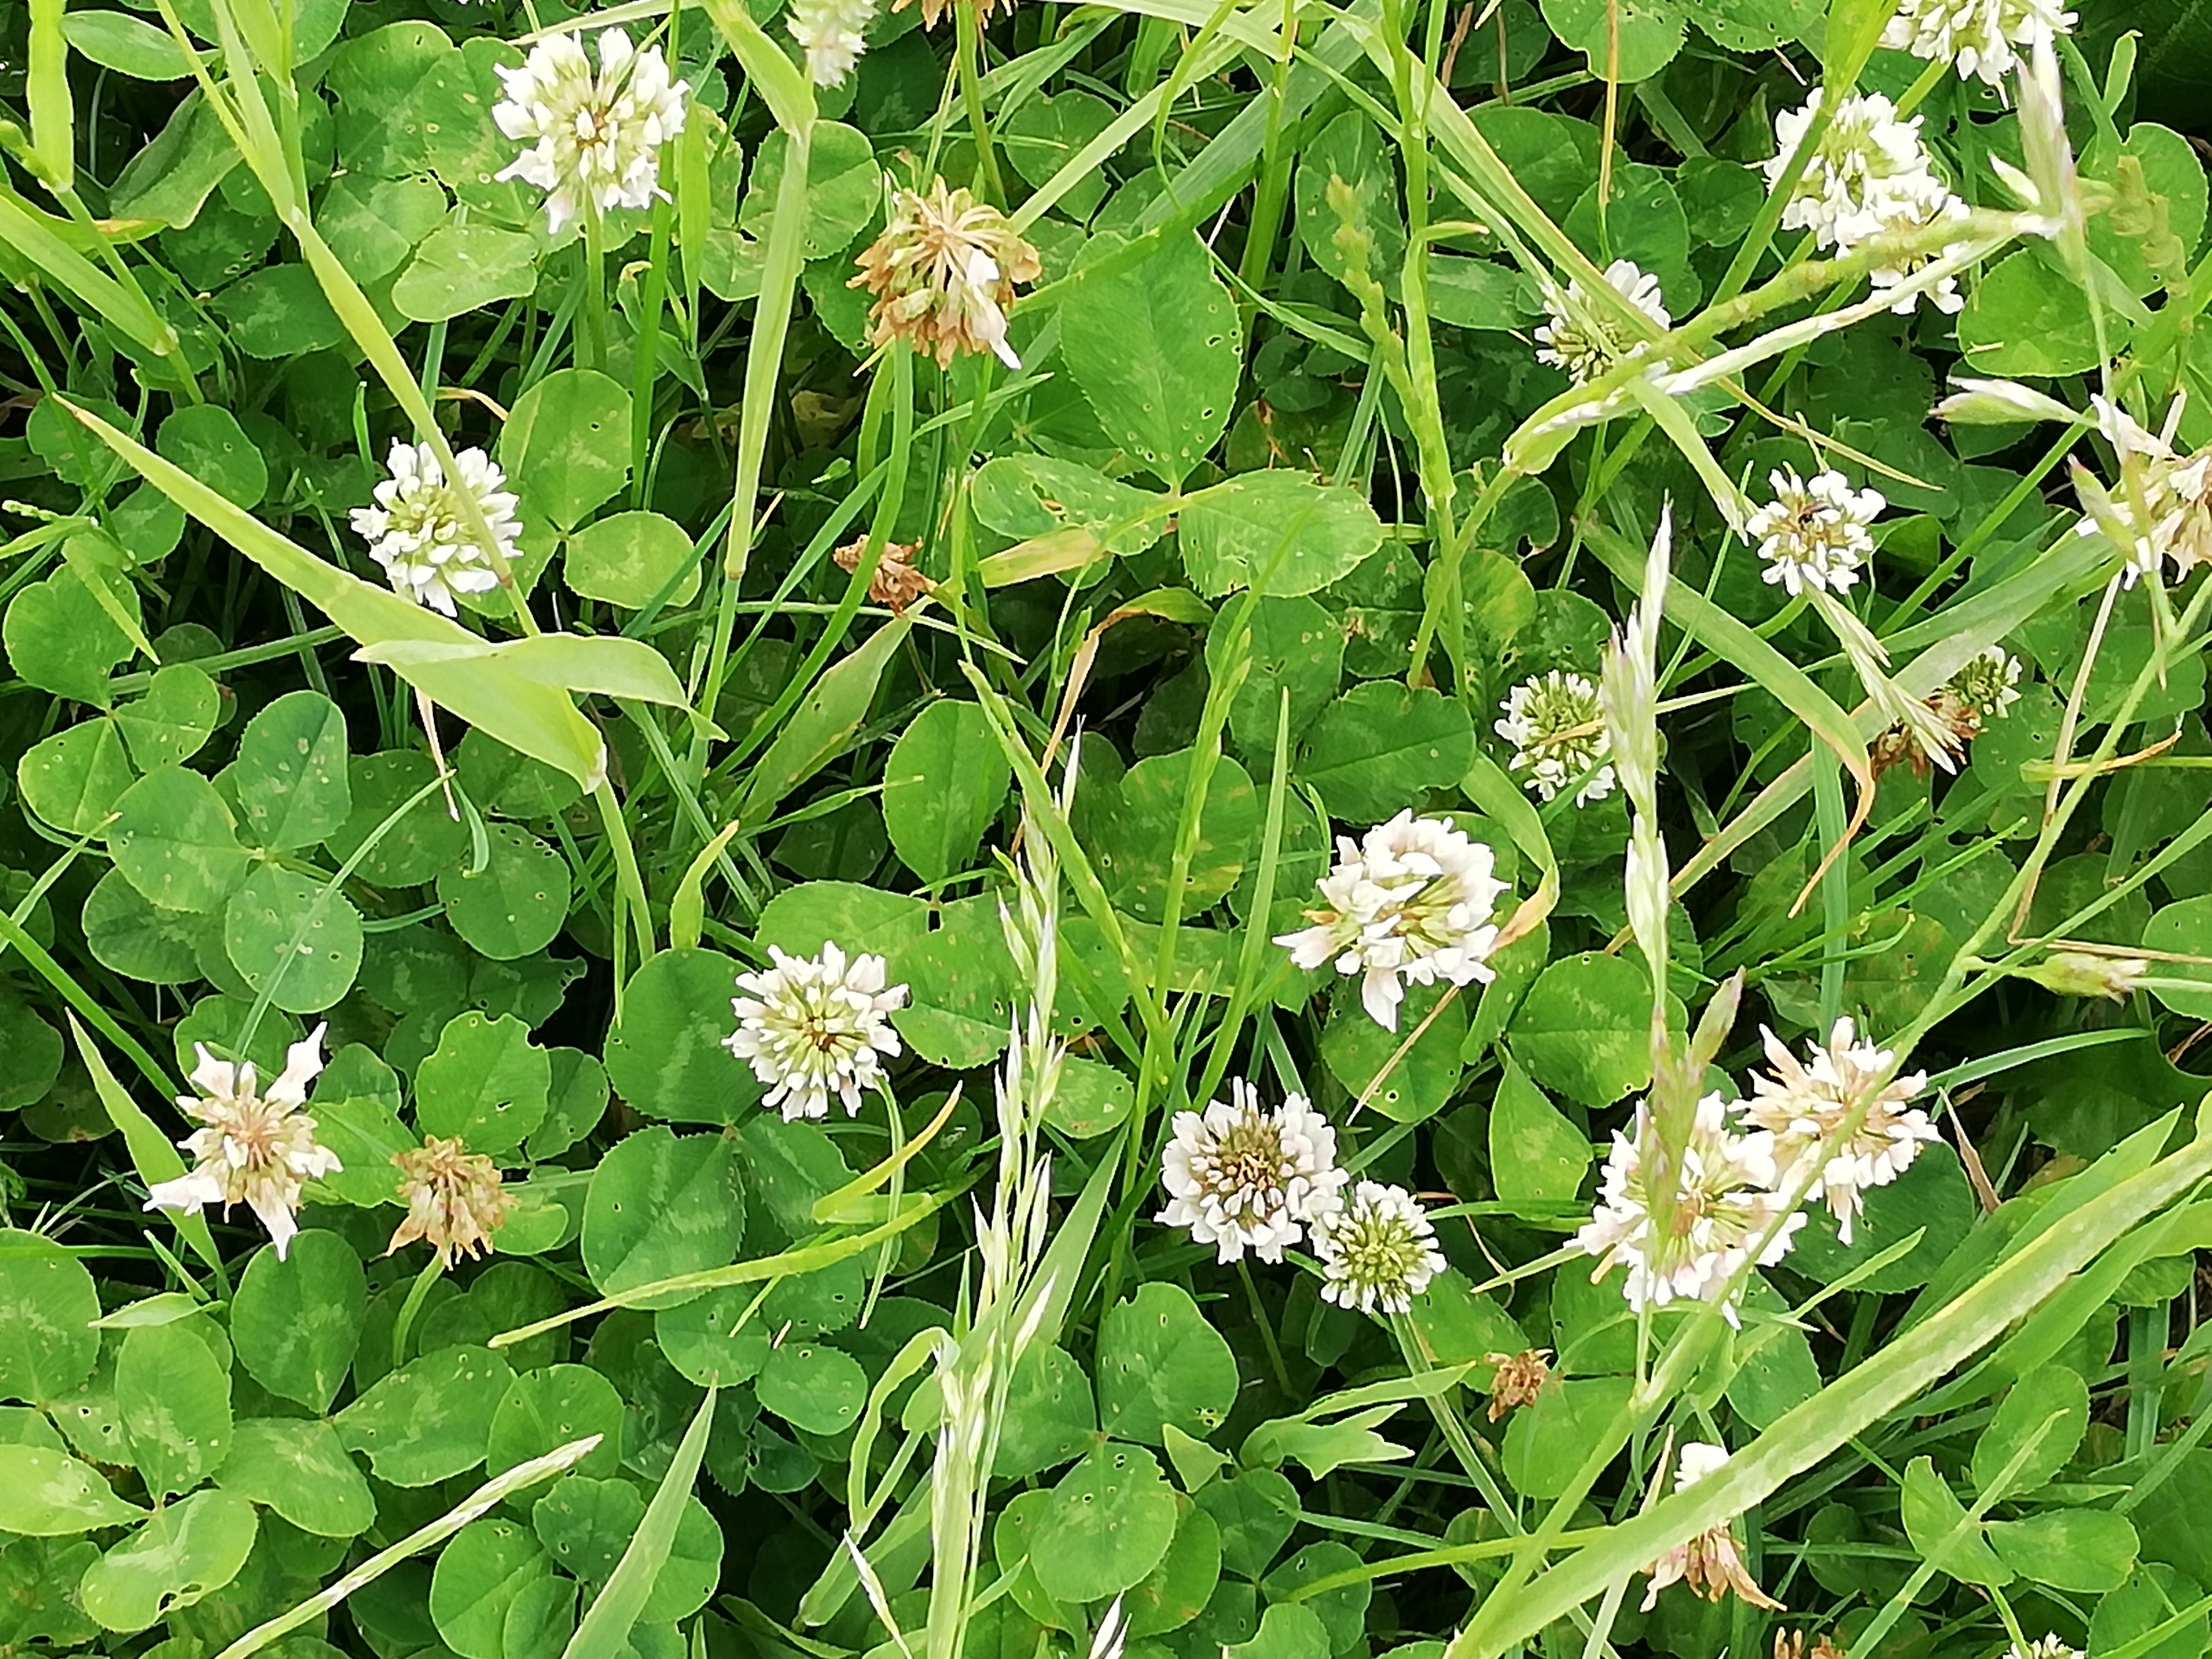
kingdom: Plantae
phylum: Tracheophyta
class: Magnoliopsida
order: Fabales
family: Fabaceae
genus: Trifolium
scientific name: Trifolium repens
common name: Hvid-kløver
